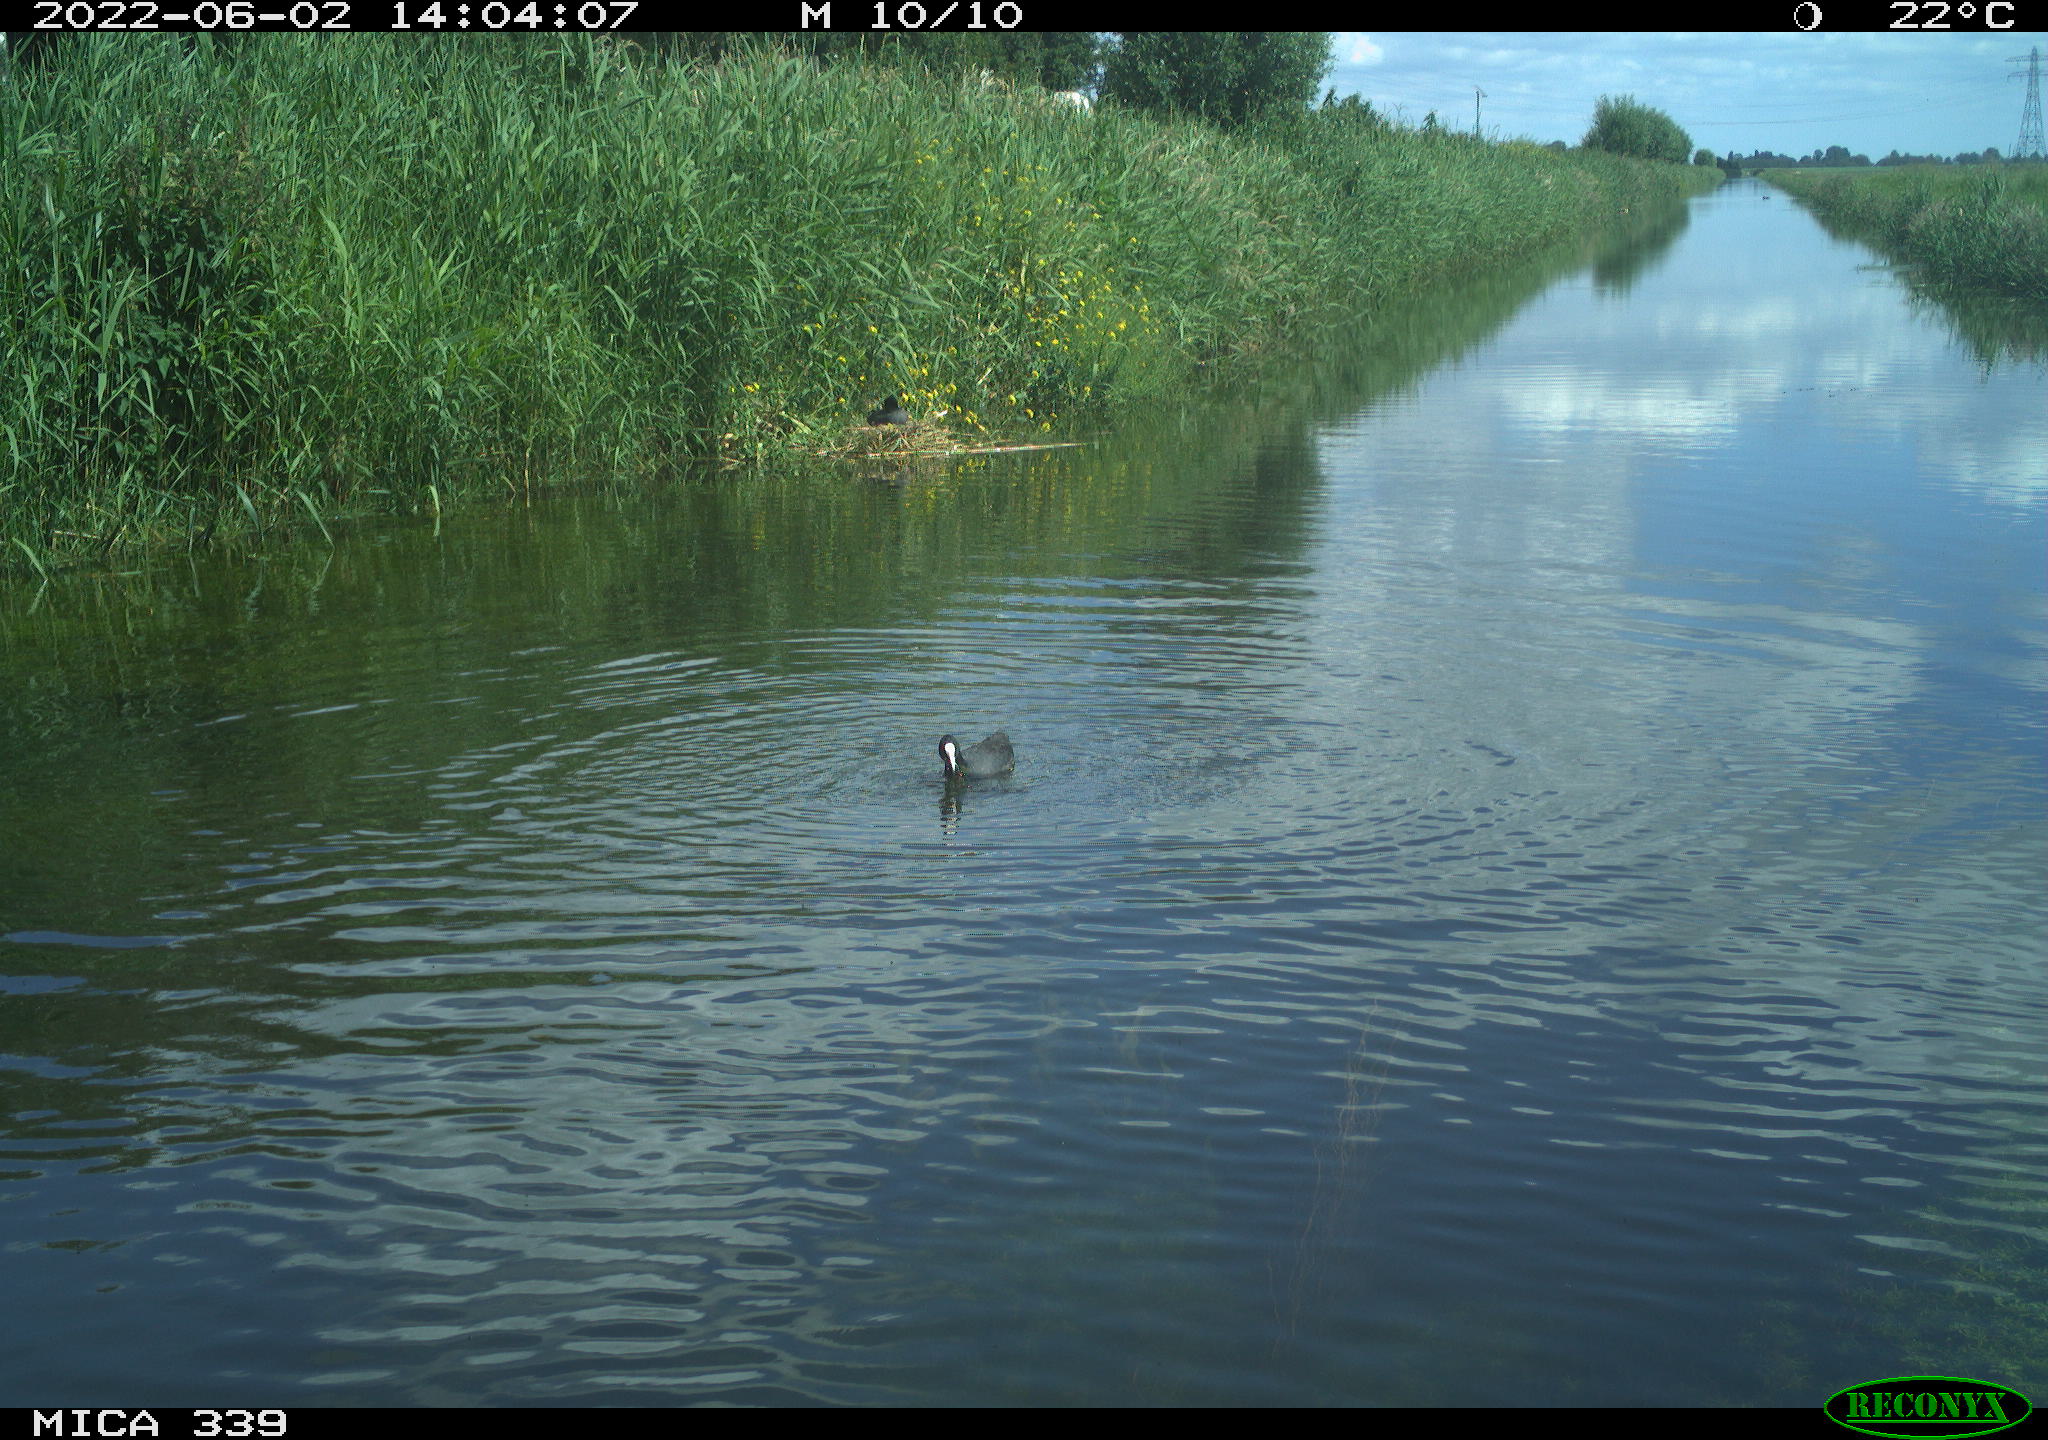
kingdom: Animalia
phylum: Chordata
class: Aves
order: Gruiformes
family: Rallidae
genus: Fulica
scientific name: Fulica atra
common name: Eurasian coot
